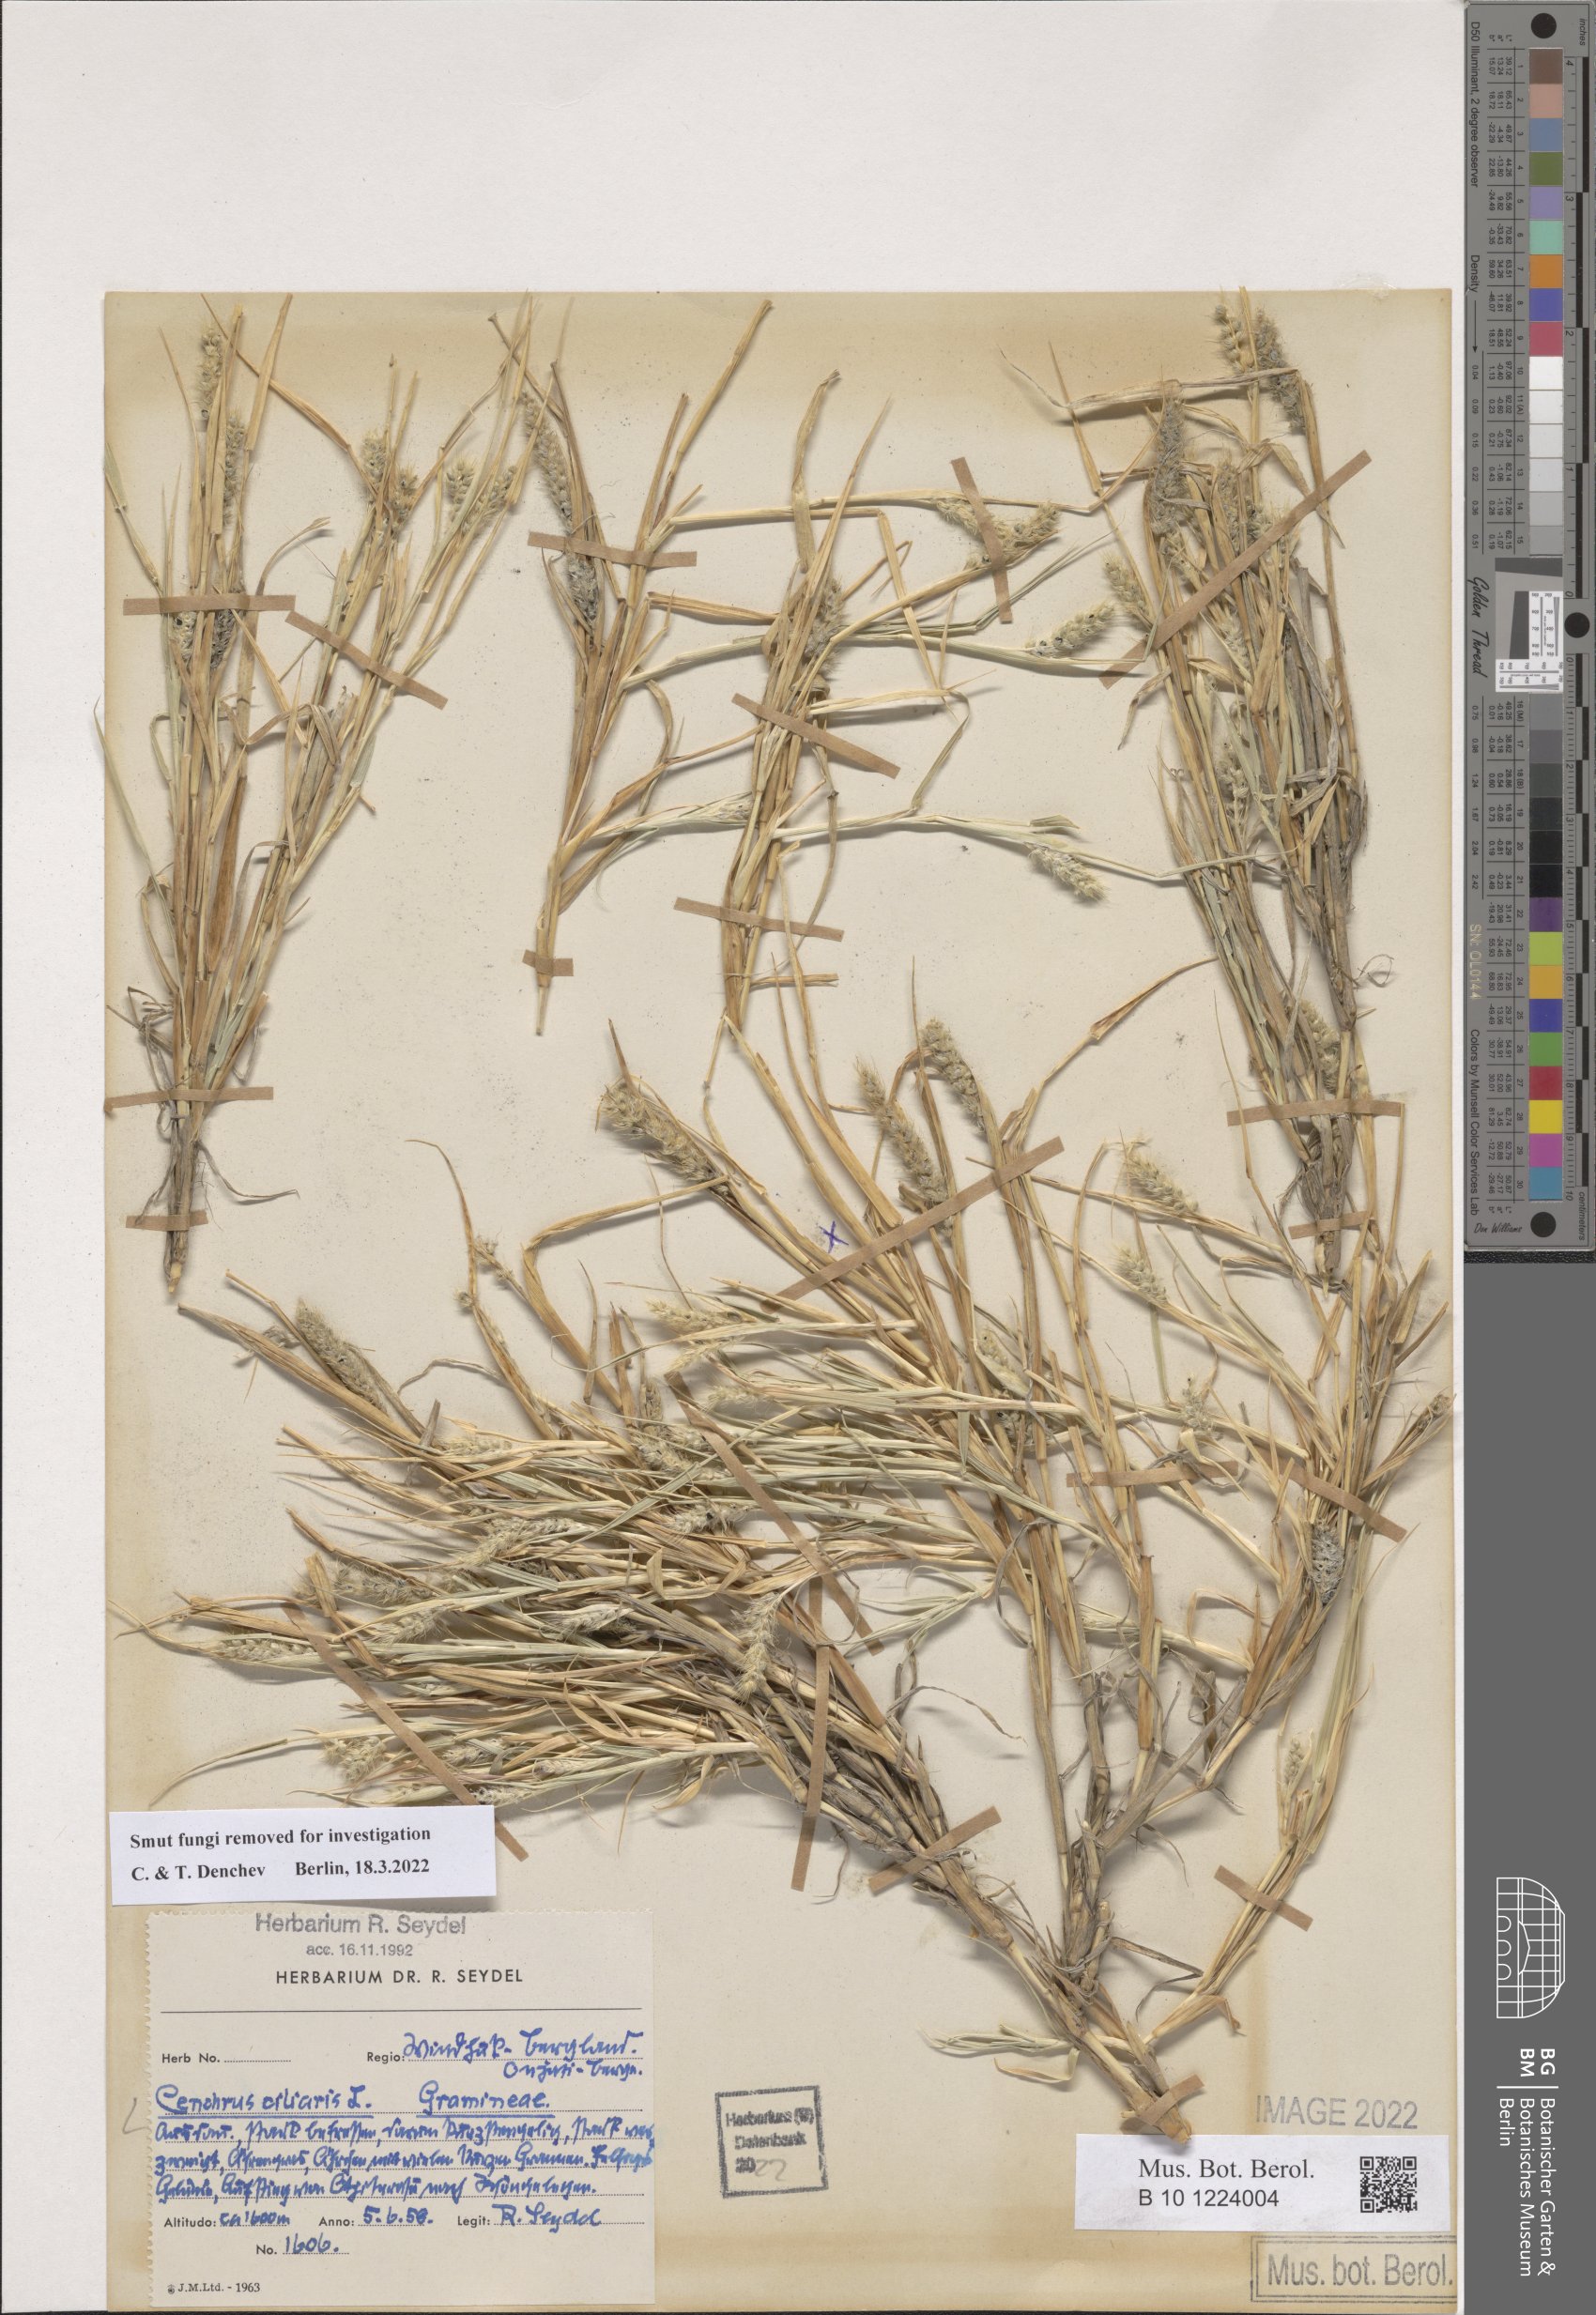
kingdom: Plantae
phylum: Tracheophyta
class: Liliopsida
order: Poales
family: Poaceae
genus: Cenchrus
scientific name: Cenchrus ciliaris
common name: Buffelgrass
